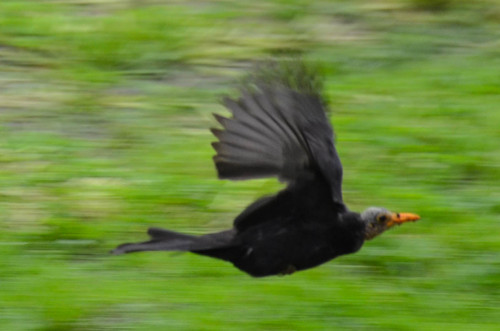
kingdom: Animalia
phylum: Chordata
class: Aves
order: Passeriformes
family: Turdidae
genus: Turdus
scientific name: Turdus merula
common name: Common blackbird
